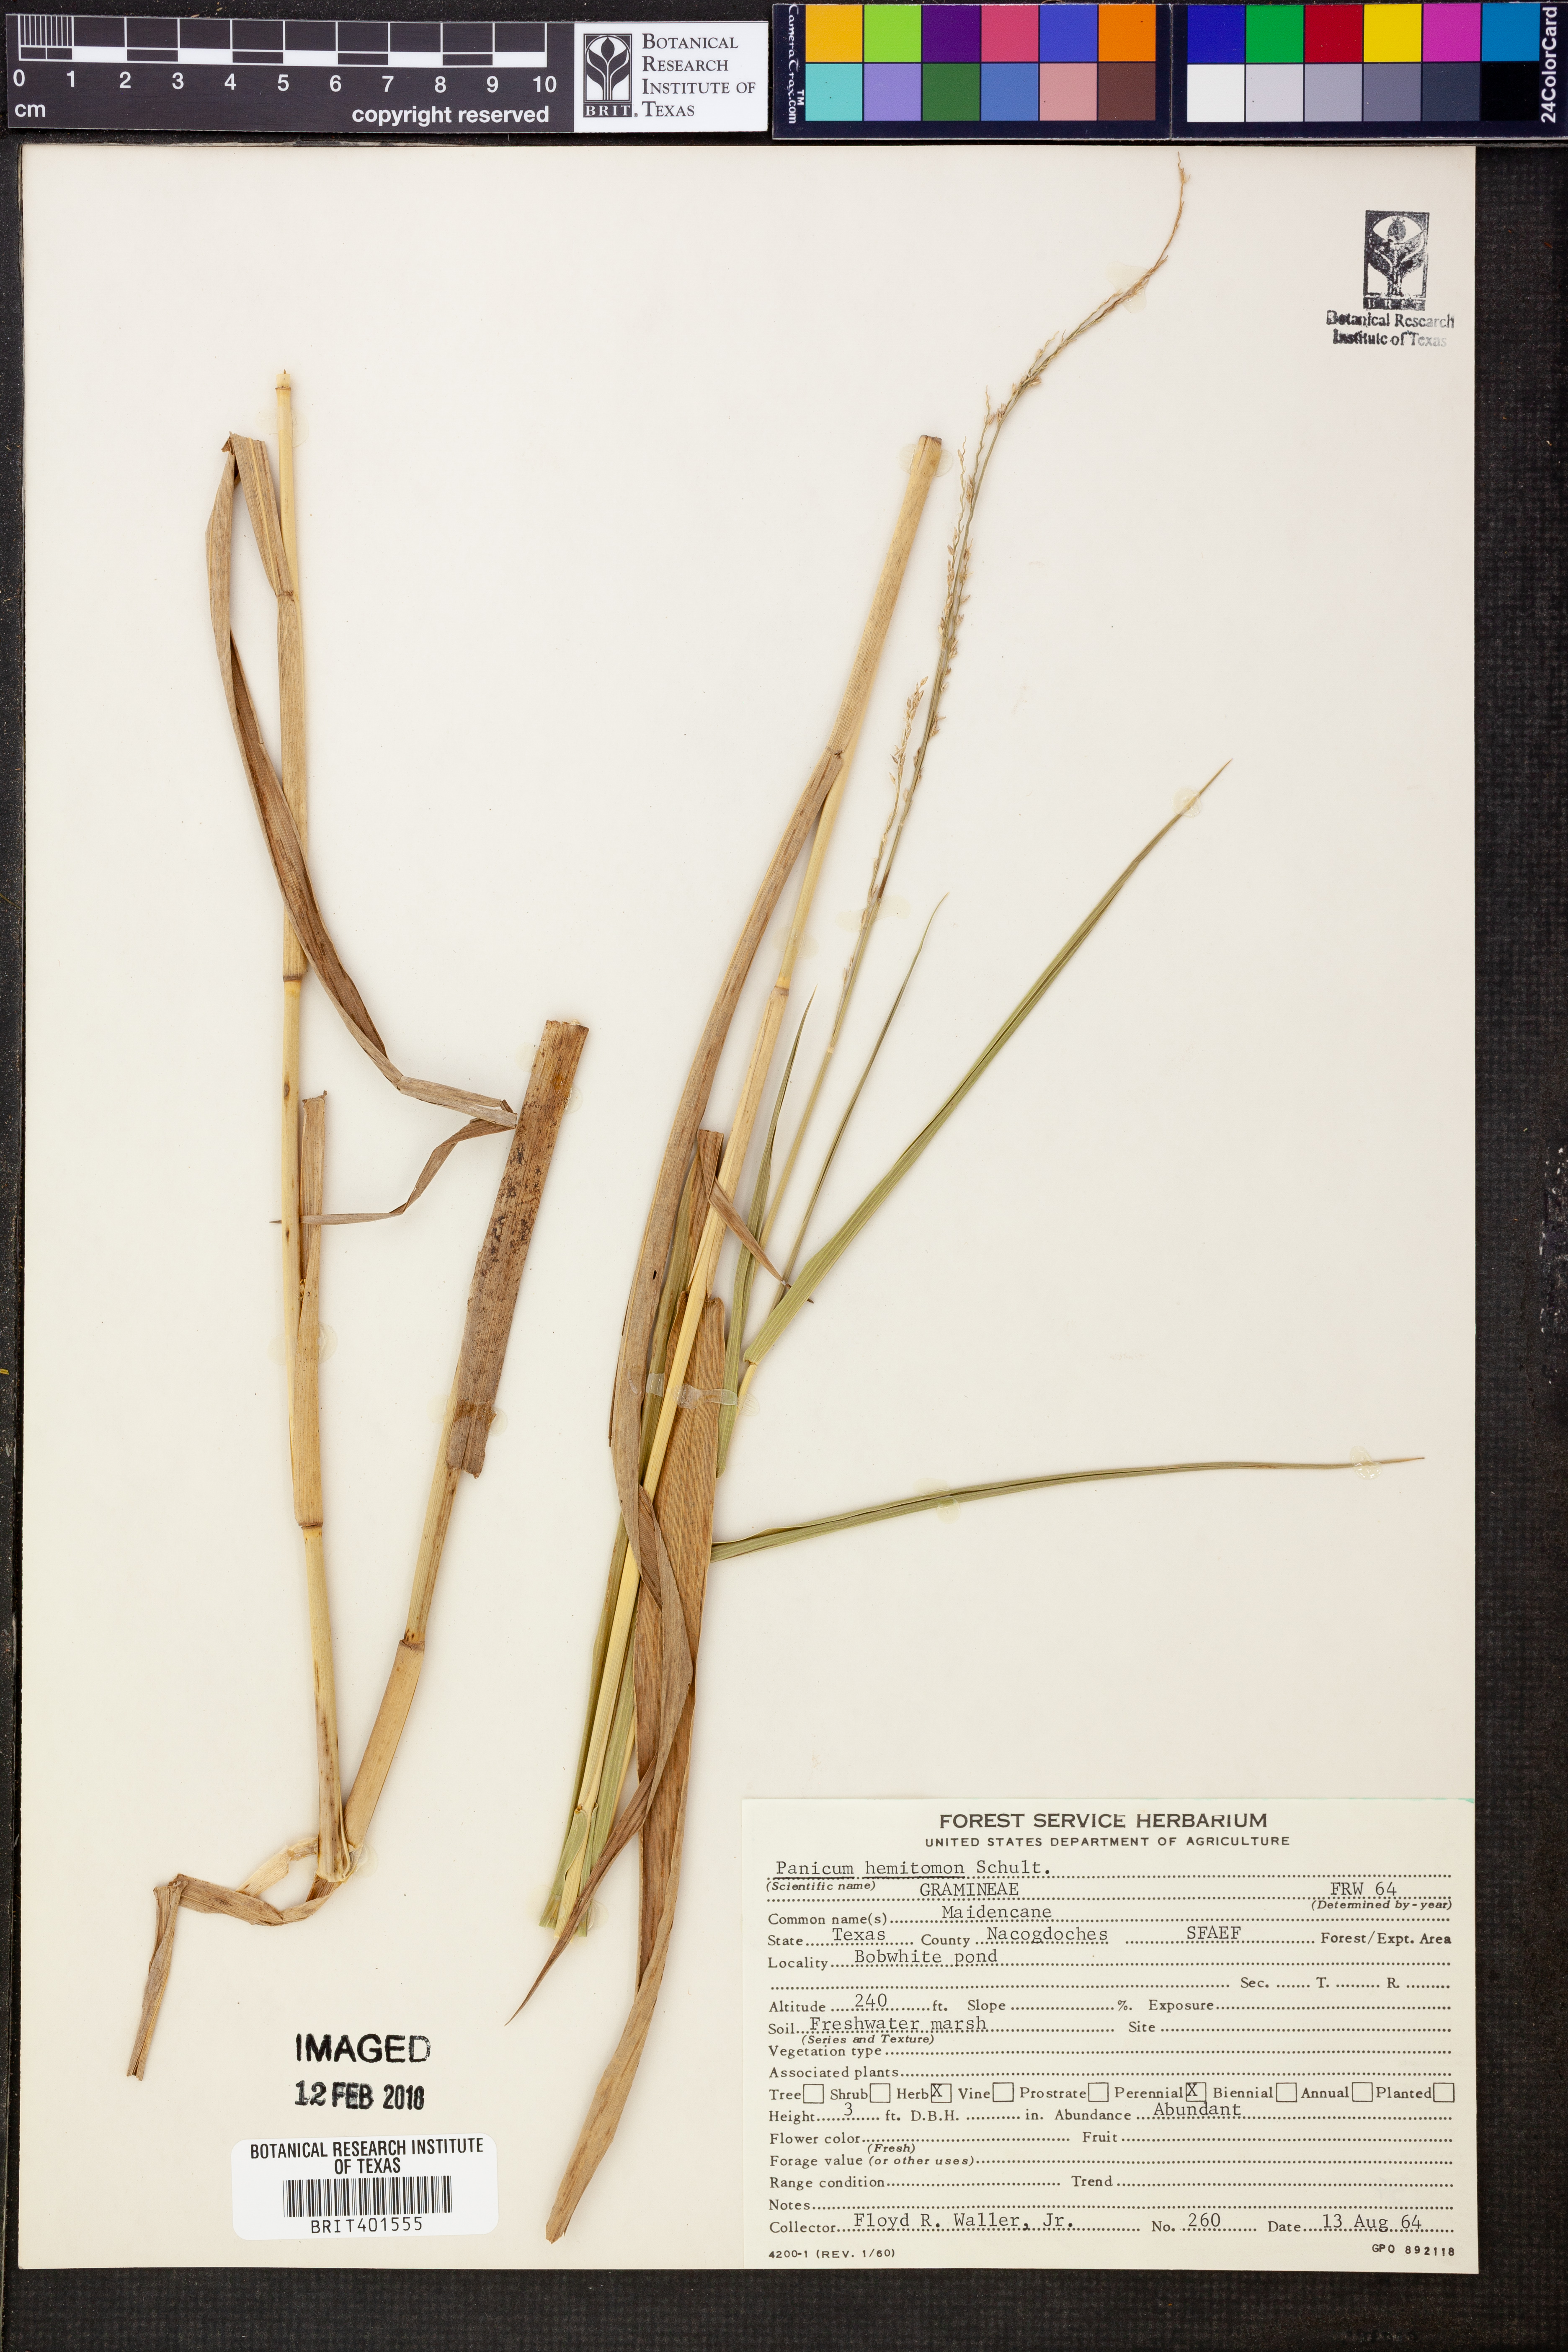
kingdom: Plantae
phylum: Tracheophyta
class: Liliopsida
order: Poales
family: Poaceae
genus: Panicum
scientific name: Panicum hemitomon
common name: Maidencane
